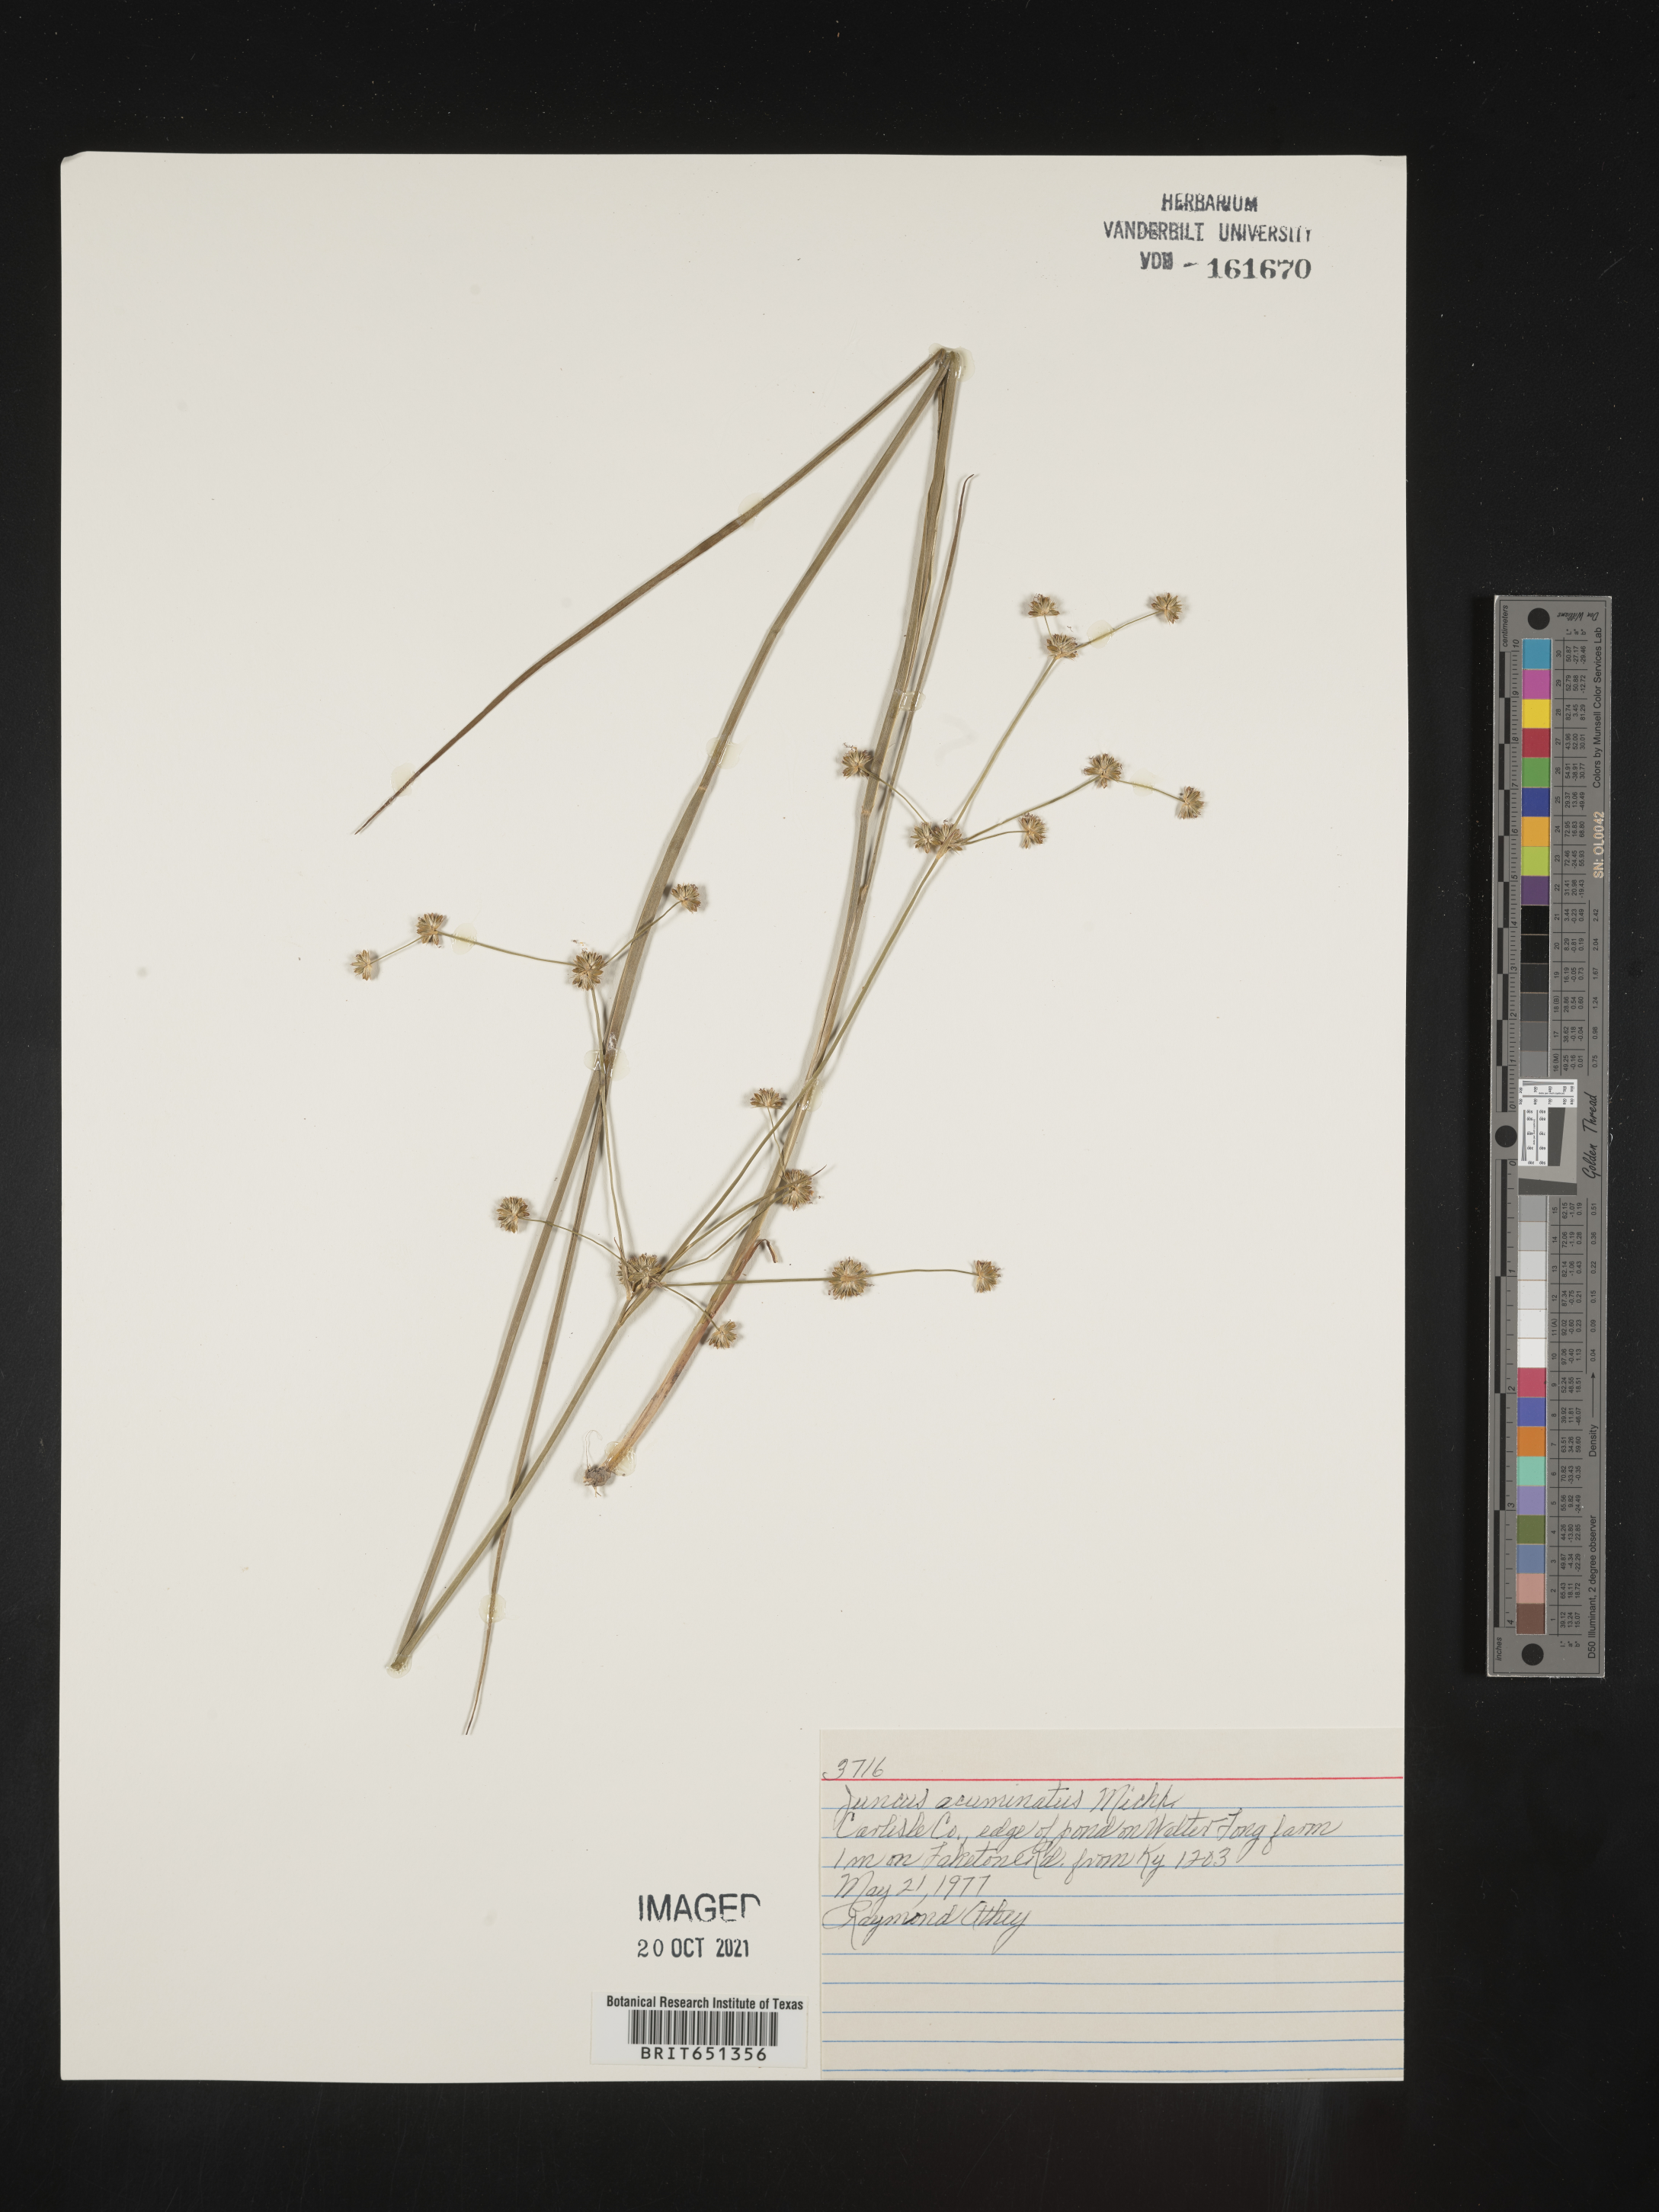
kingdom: Plantae
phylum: Tracheophyta
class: Liliopsida
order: Poales
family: Juncaceae
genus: Juncus
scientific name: Juncus acuminatus
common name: Knotty-leaved rush
